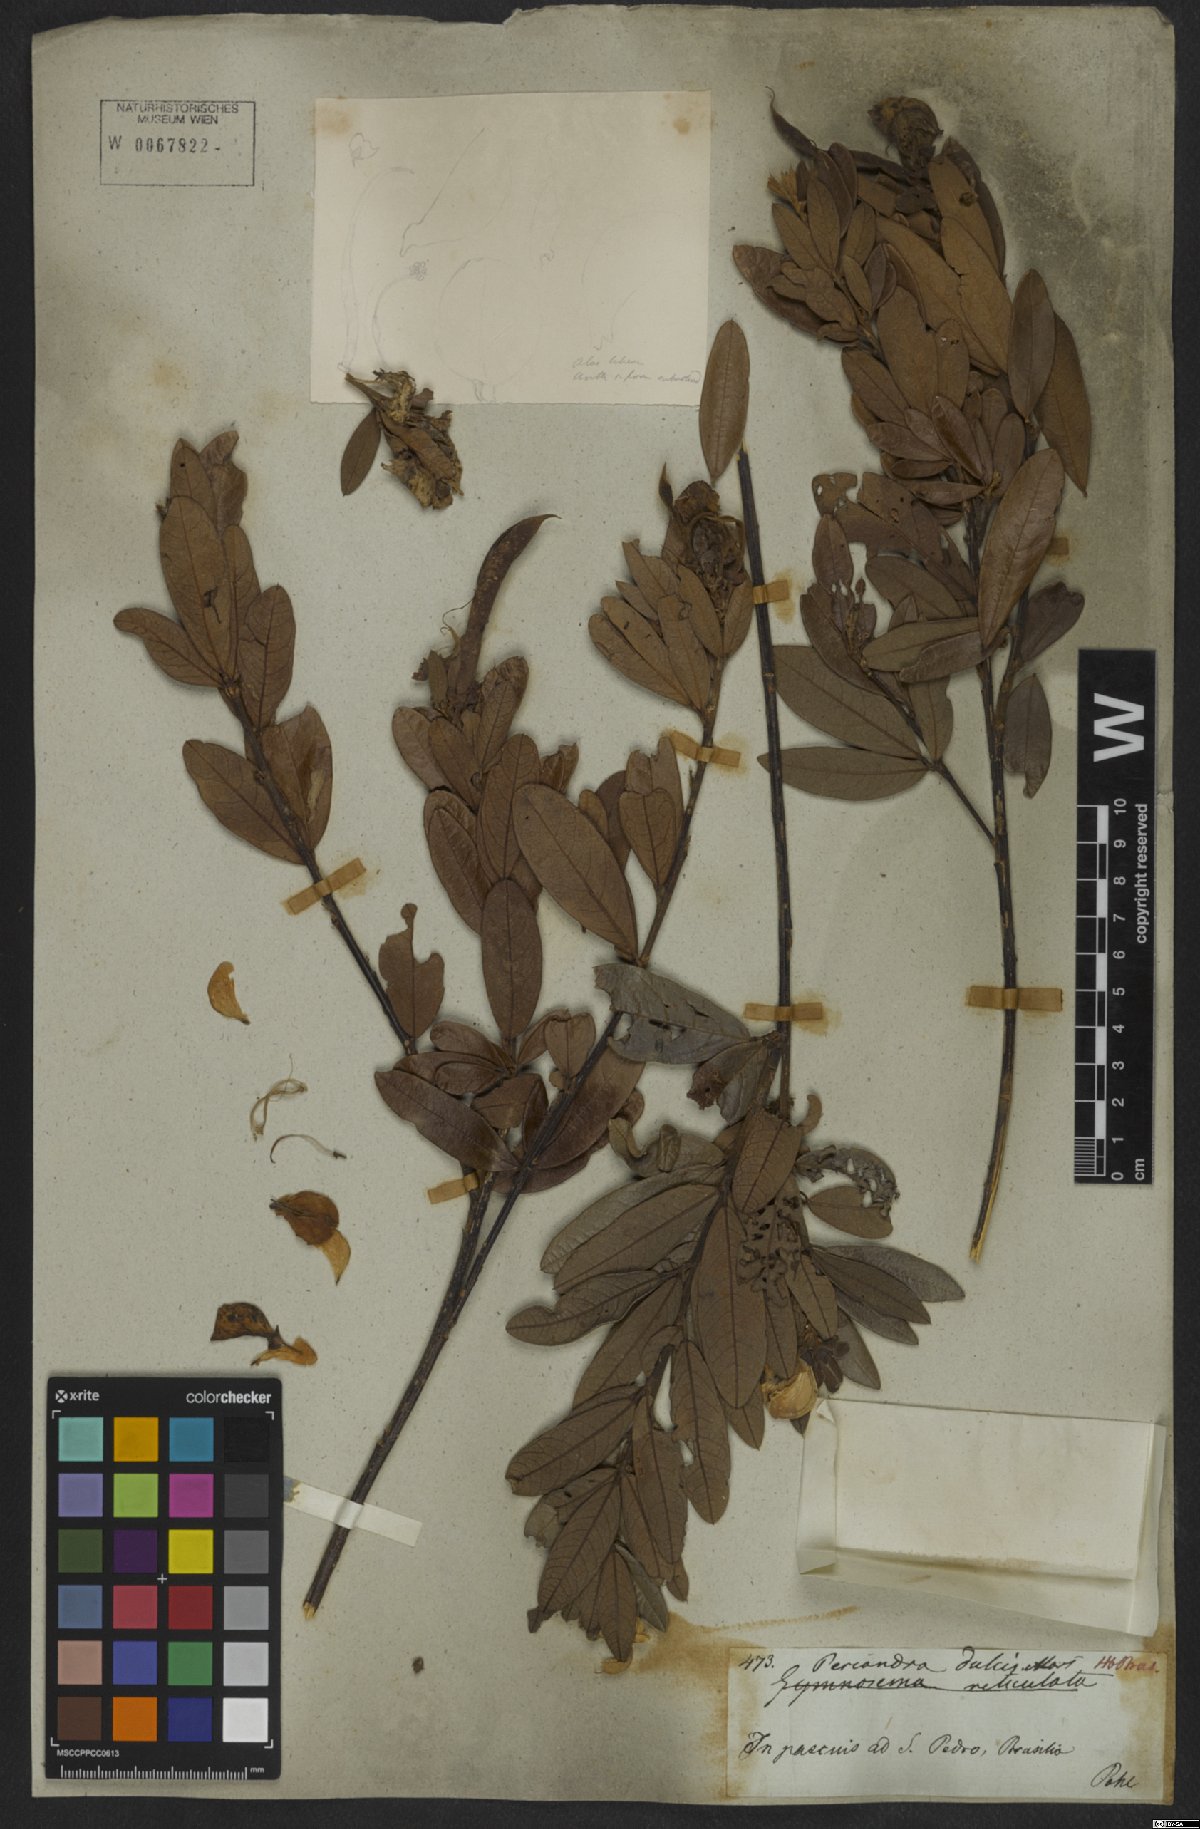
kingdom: Plantae
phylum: Tracheophyta
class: Magnoliopsida
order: Fabales
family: Fabaceae
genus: Periandra
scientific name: Periandra mediterranea
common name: Brazilian licorice
